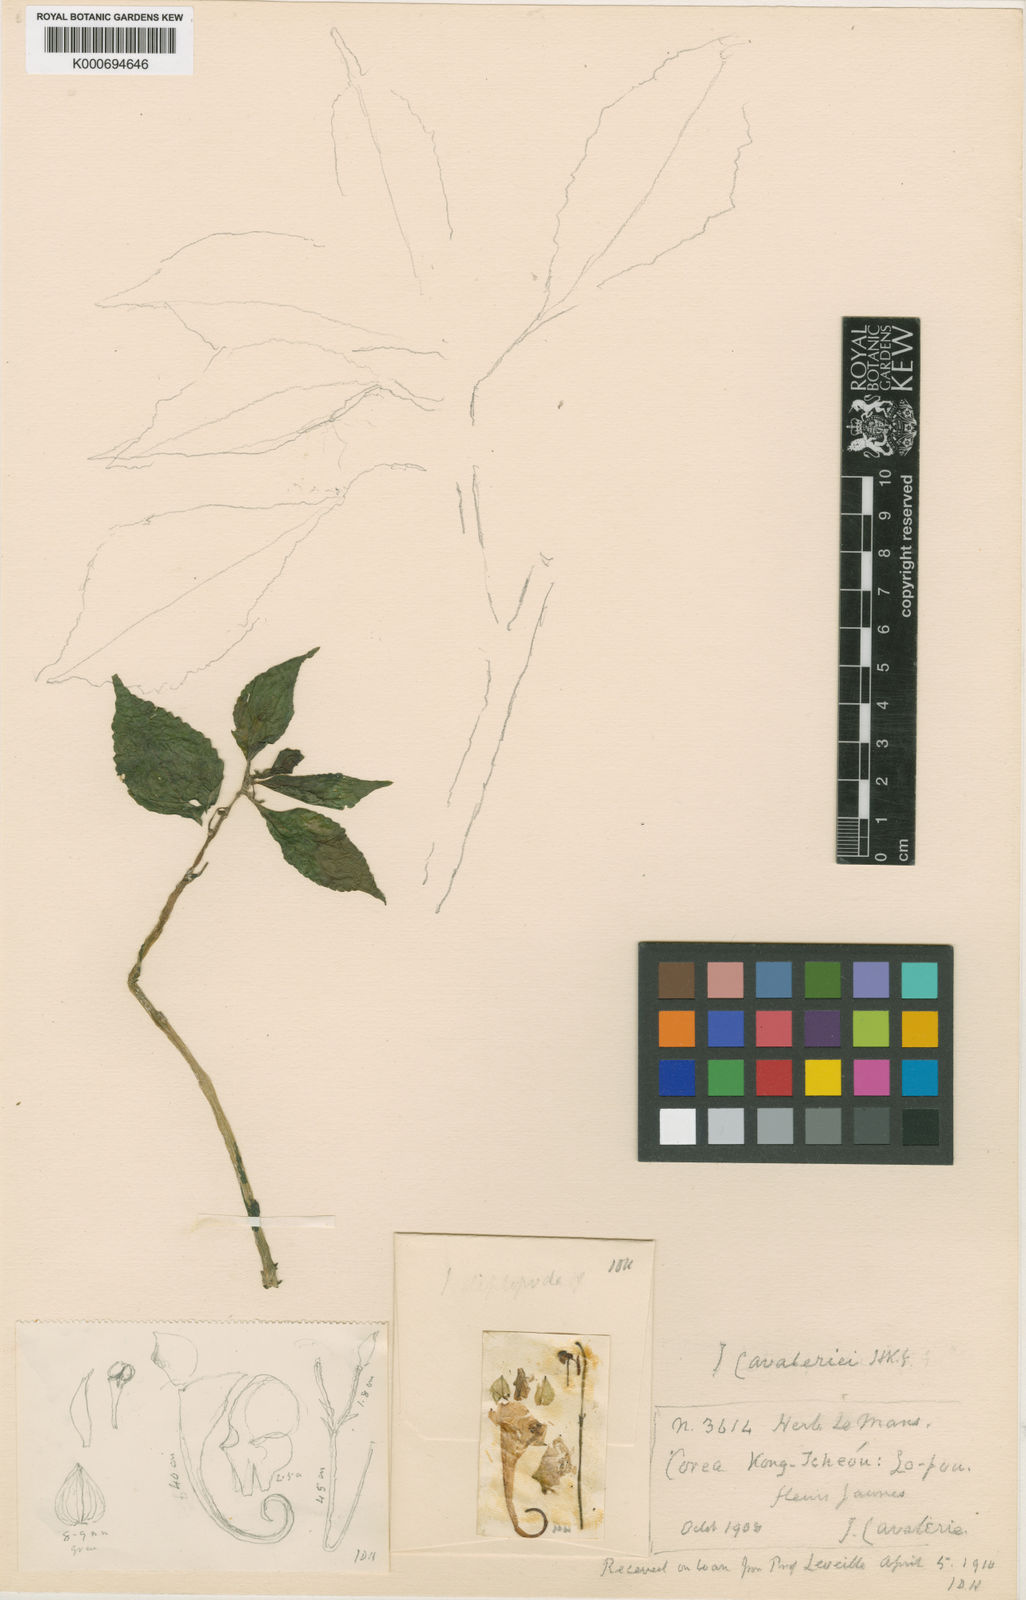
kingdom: Plantae
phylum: Tracheophyta
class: Magnoliopsida
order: Ericales
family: Balsaminaceae
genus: Impatiens
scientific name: Impatiens
